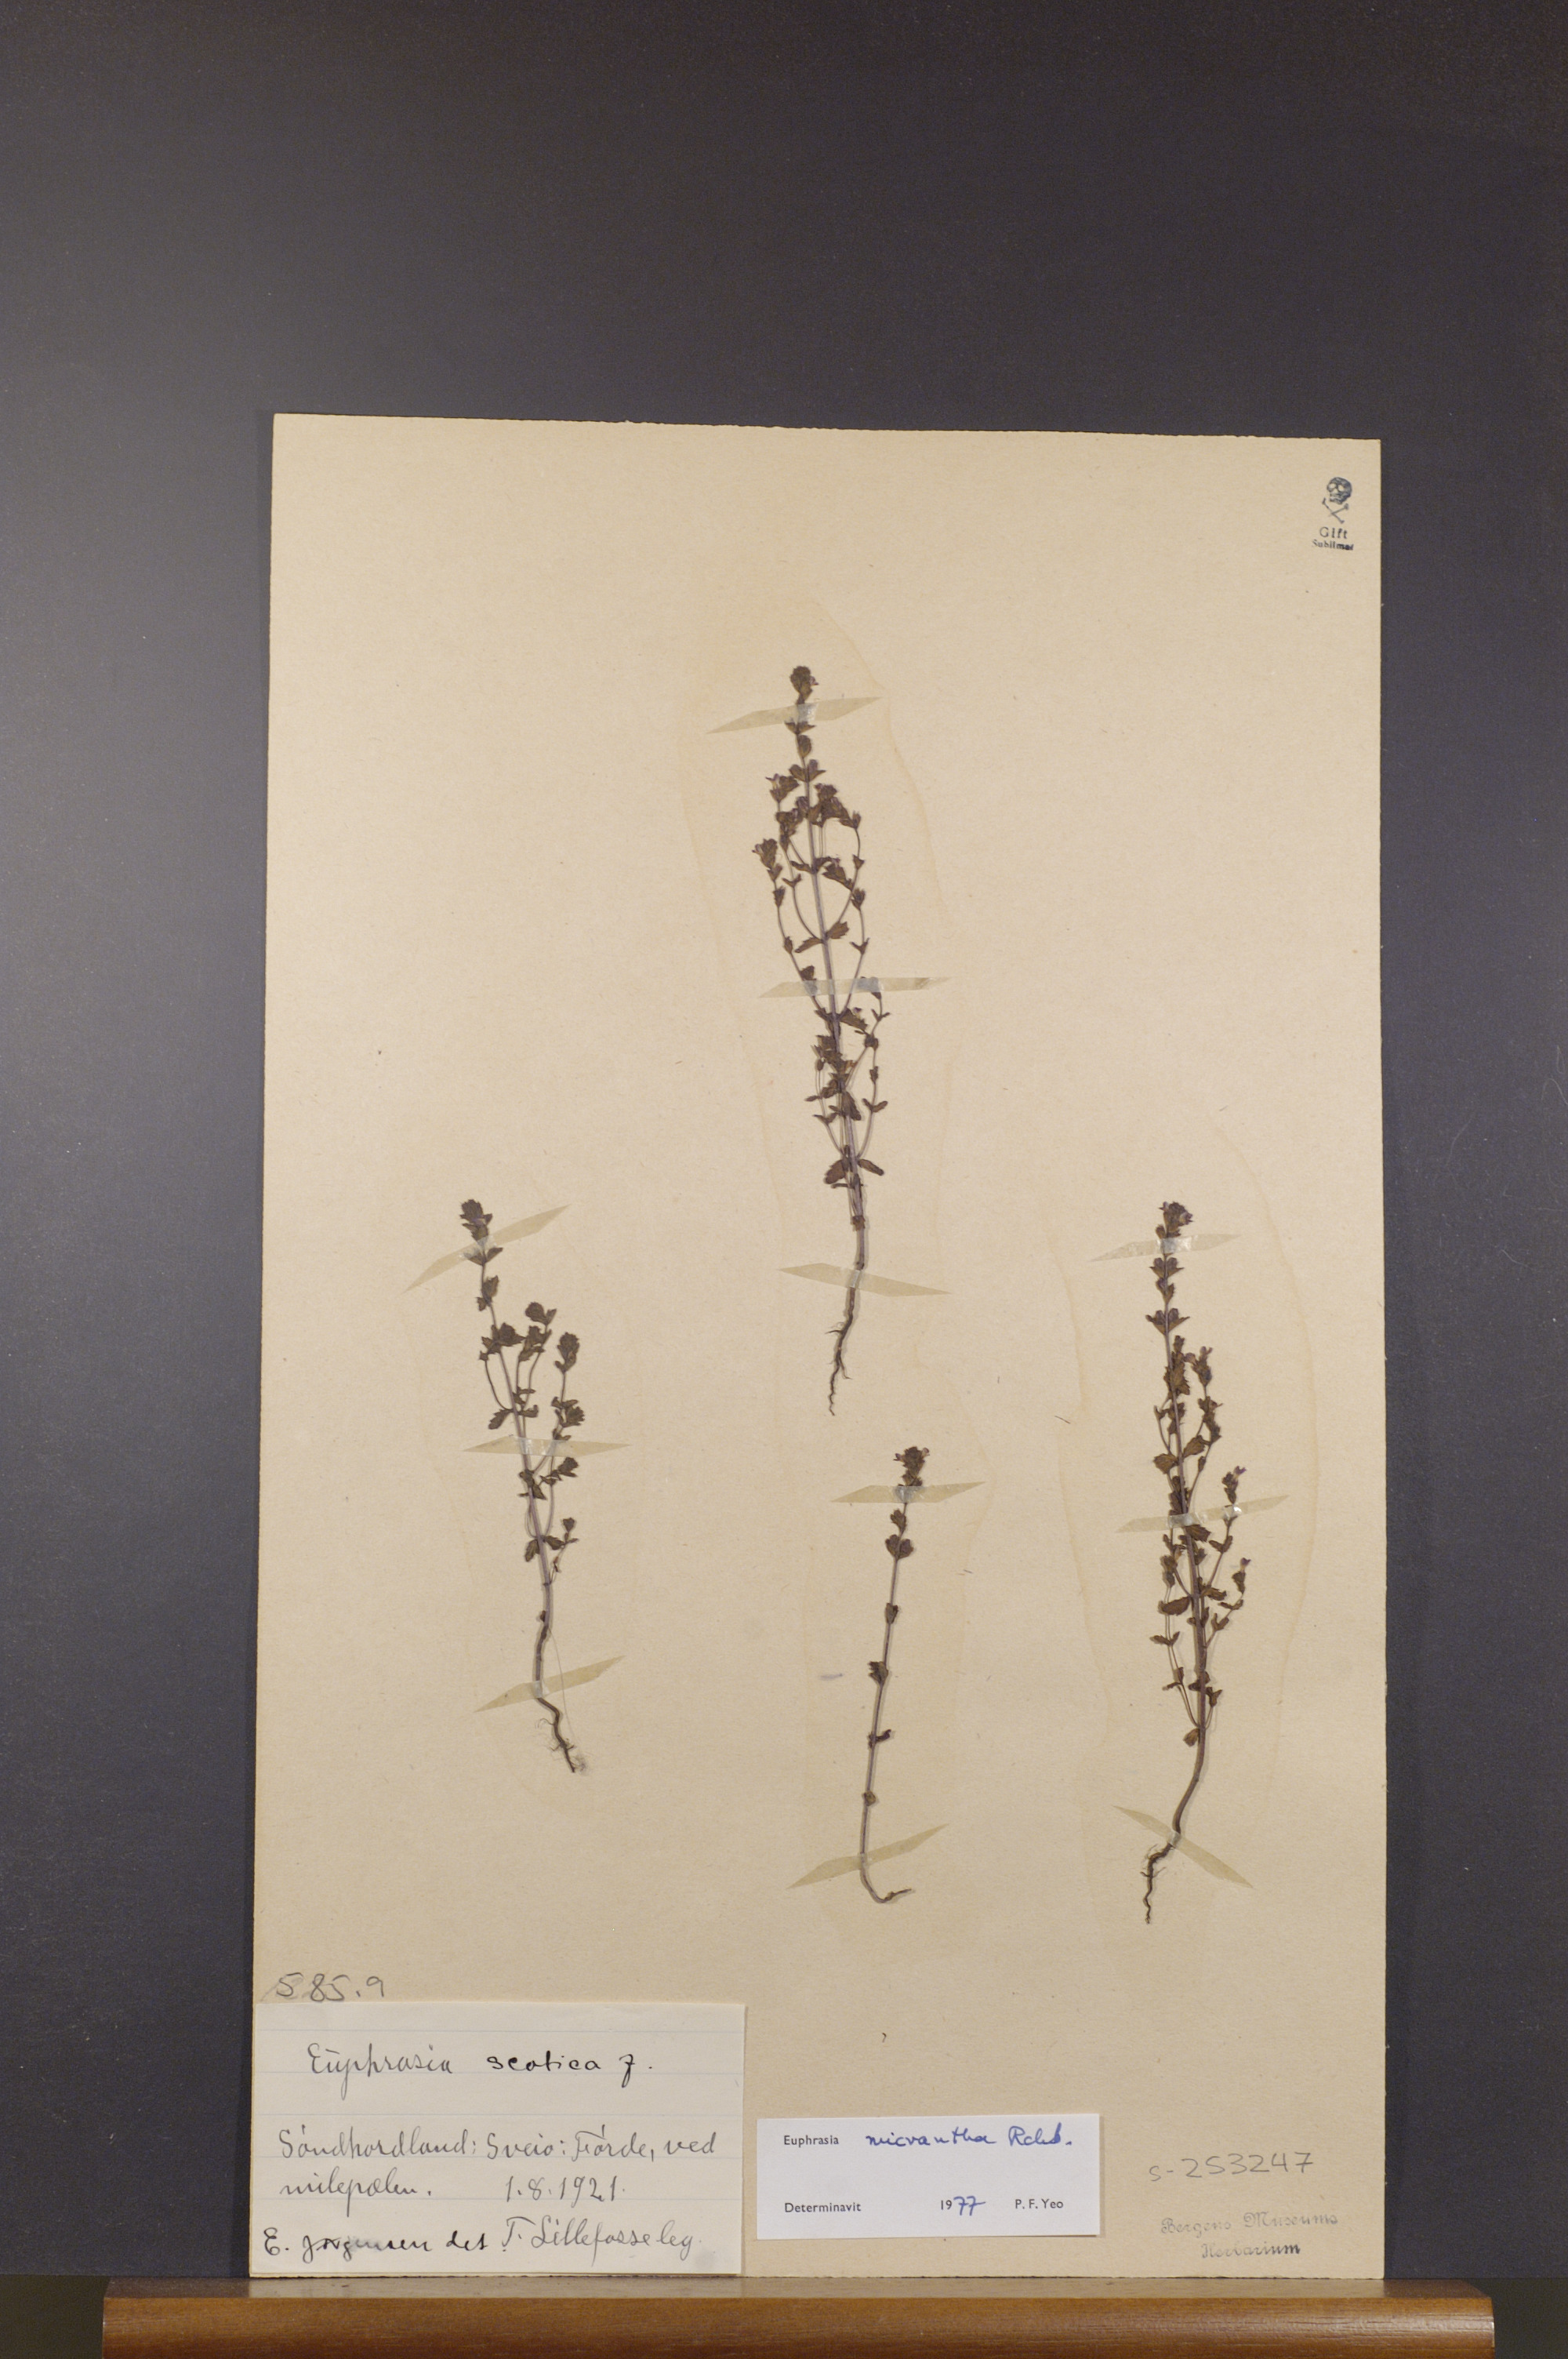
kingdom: Plantae
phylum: Tracheophyta
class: Magnoliopsida
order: Lamiales
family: Orobanchaceae
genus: Euphrasia
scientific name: Euphrasia micrantha
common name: Northern eyebright
